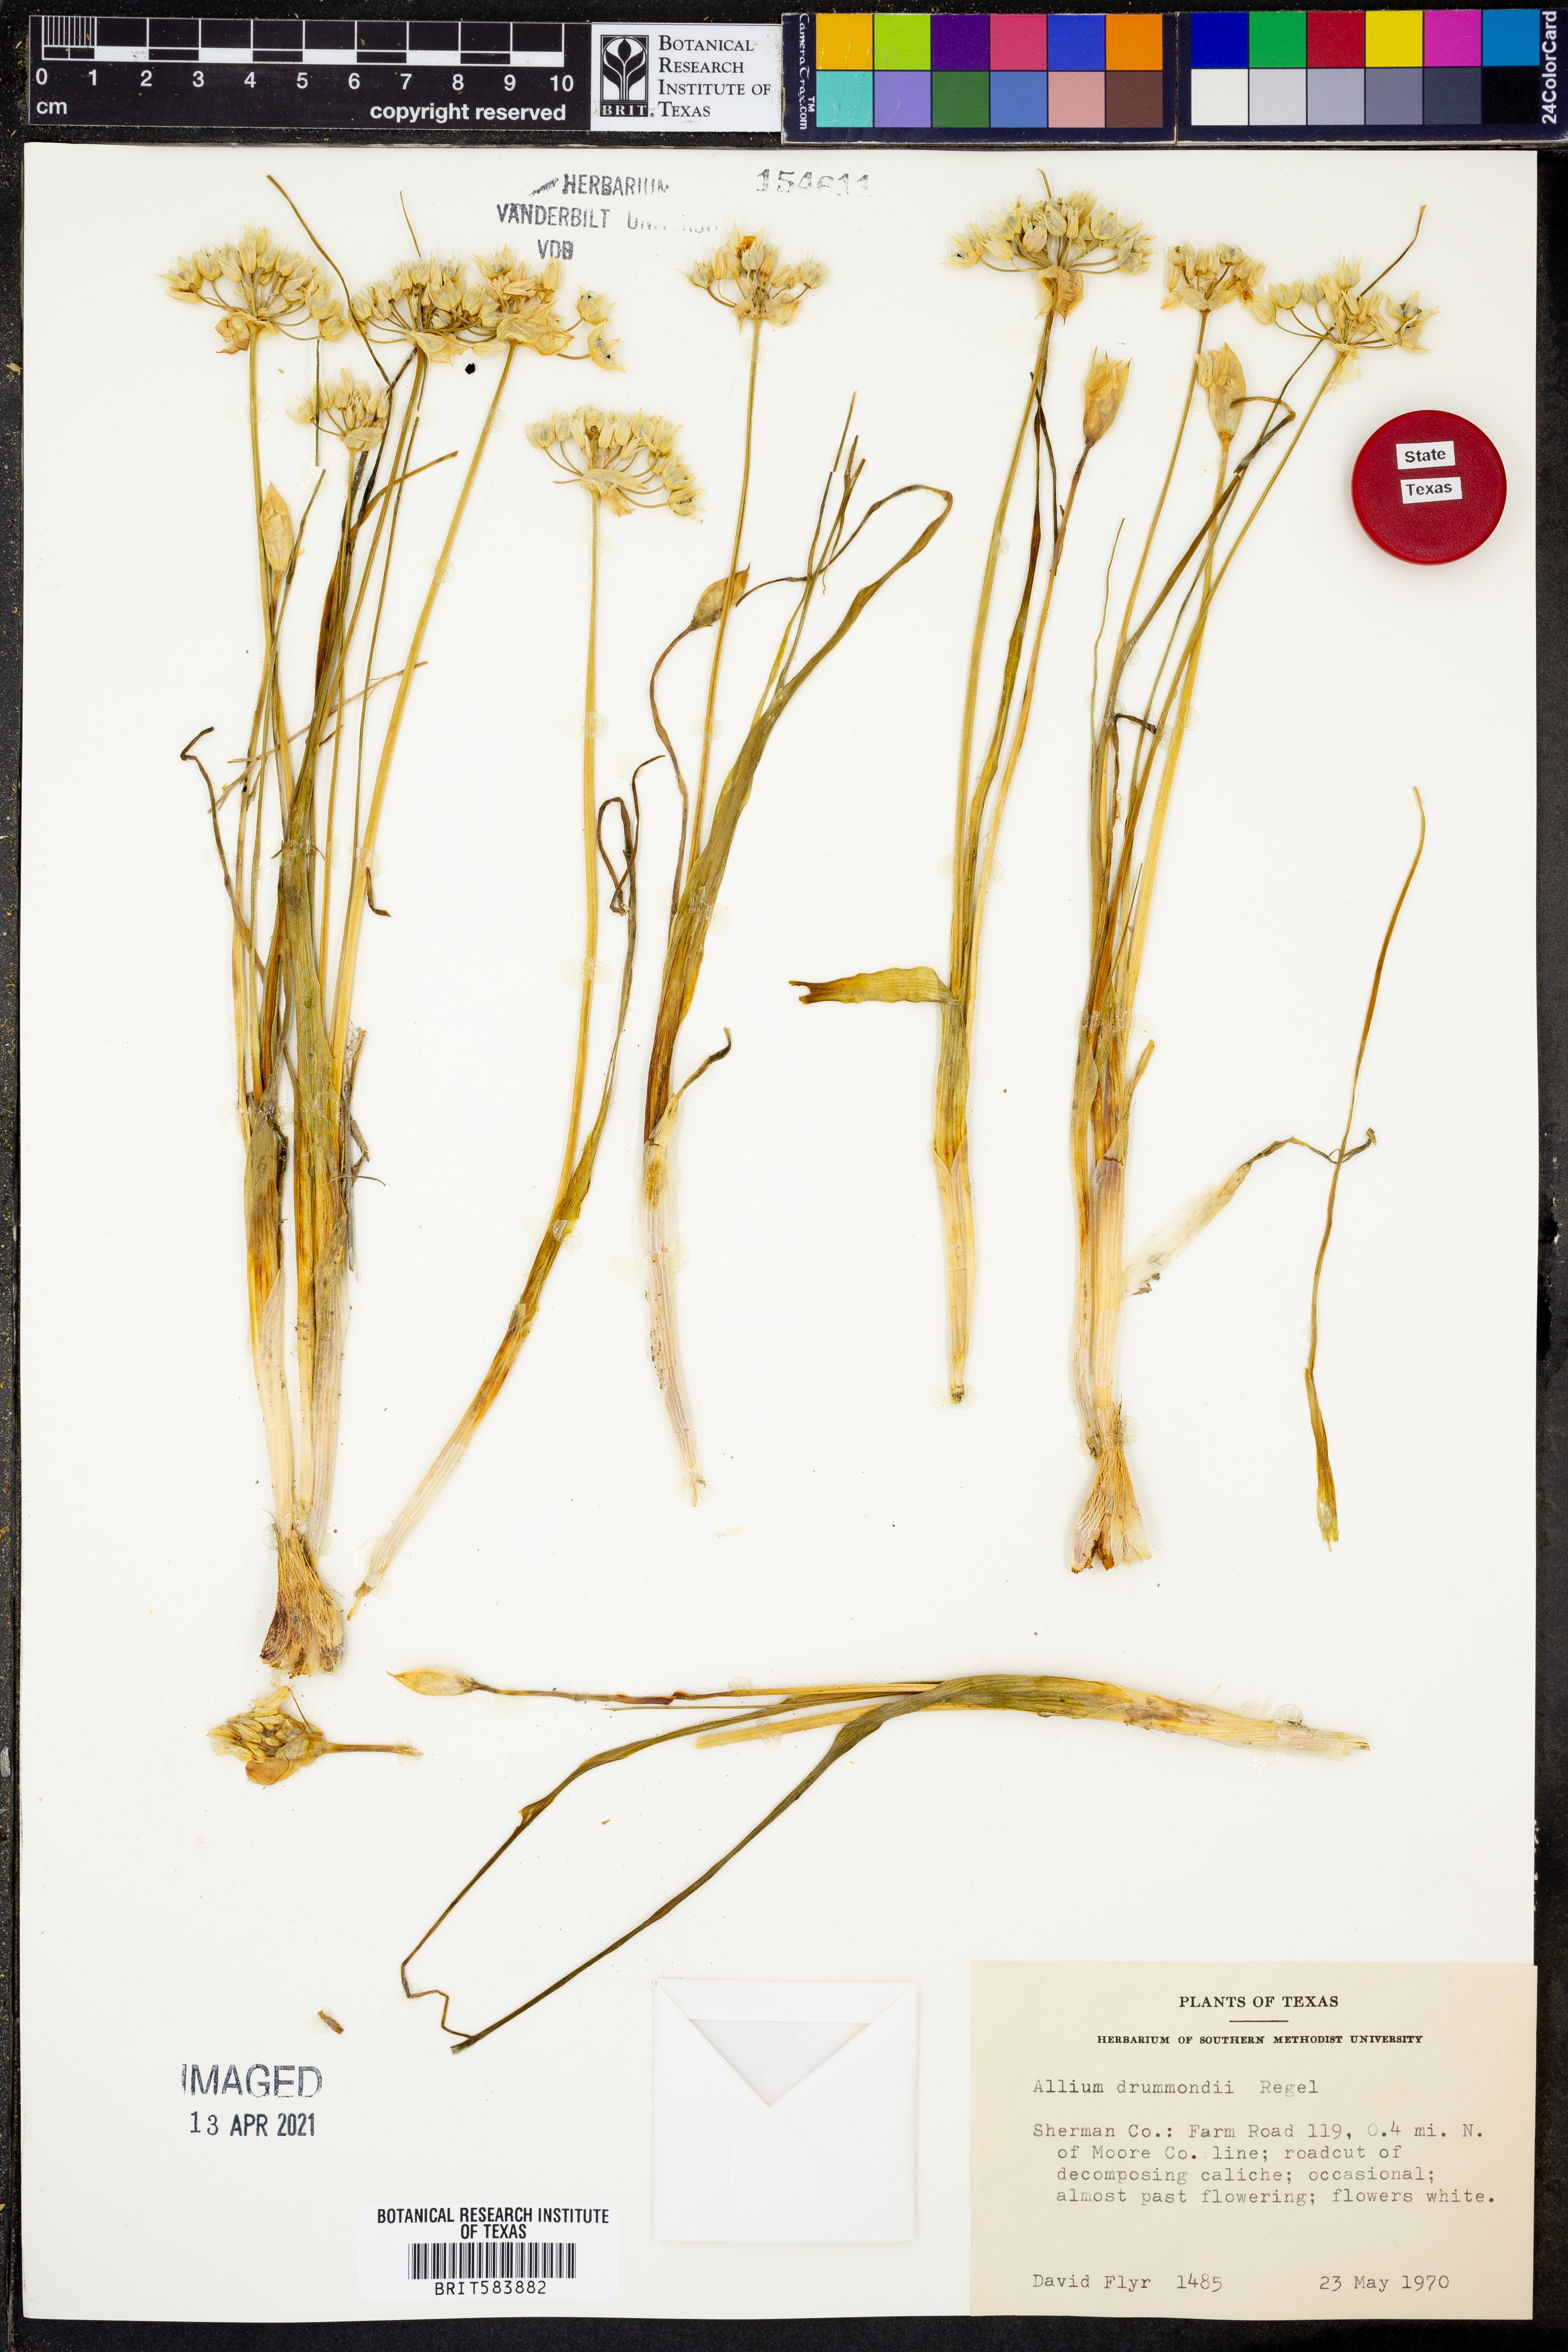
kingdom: Plantae
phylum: Tracheophyta
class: Liliopsida
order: Asparagales
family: Amaryllidaceae
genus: Allium
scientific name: Allium drummondii
